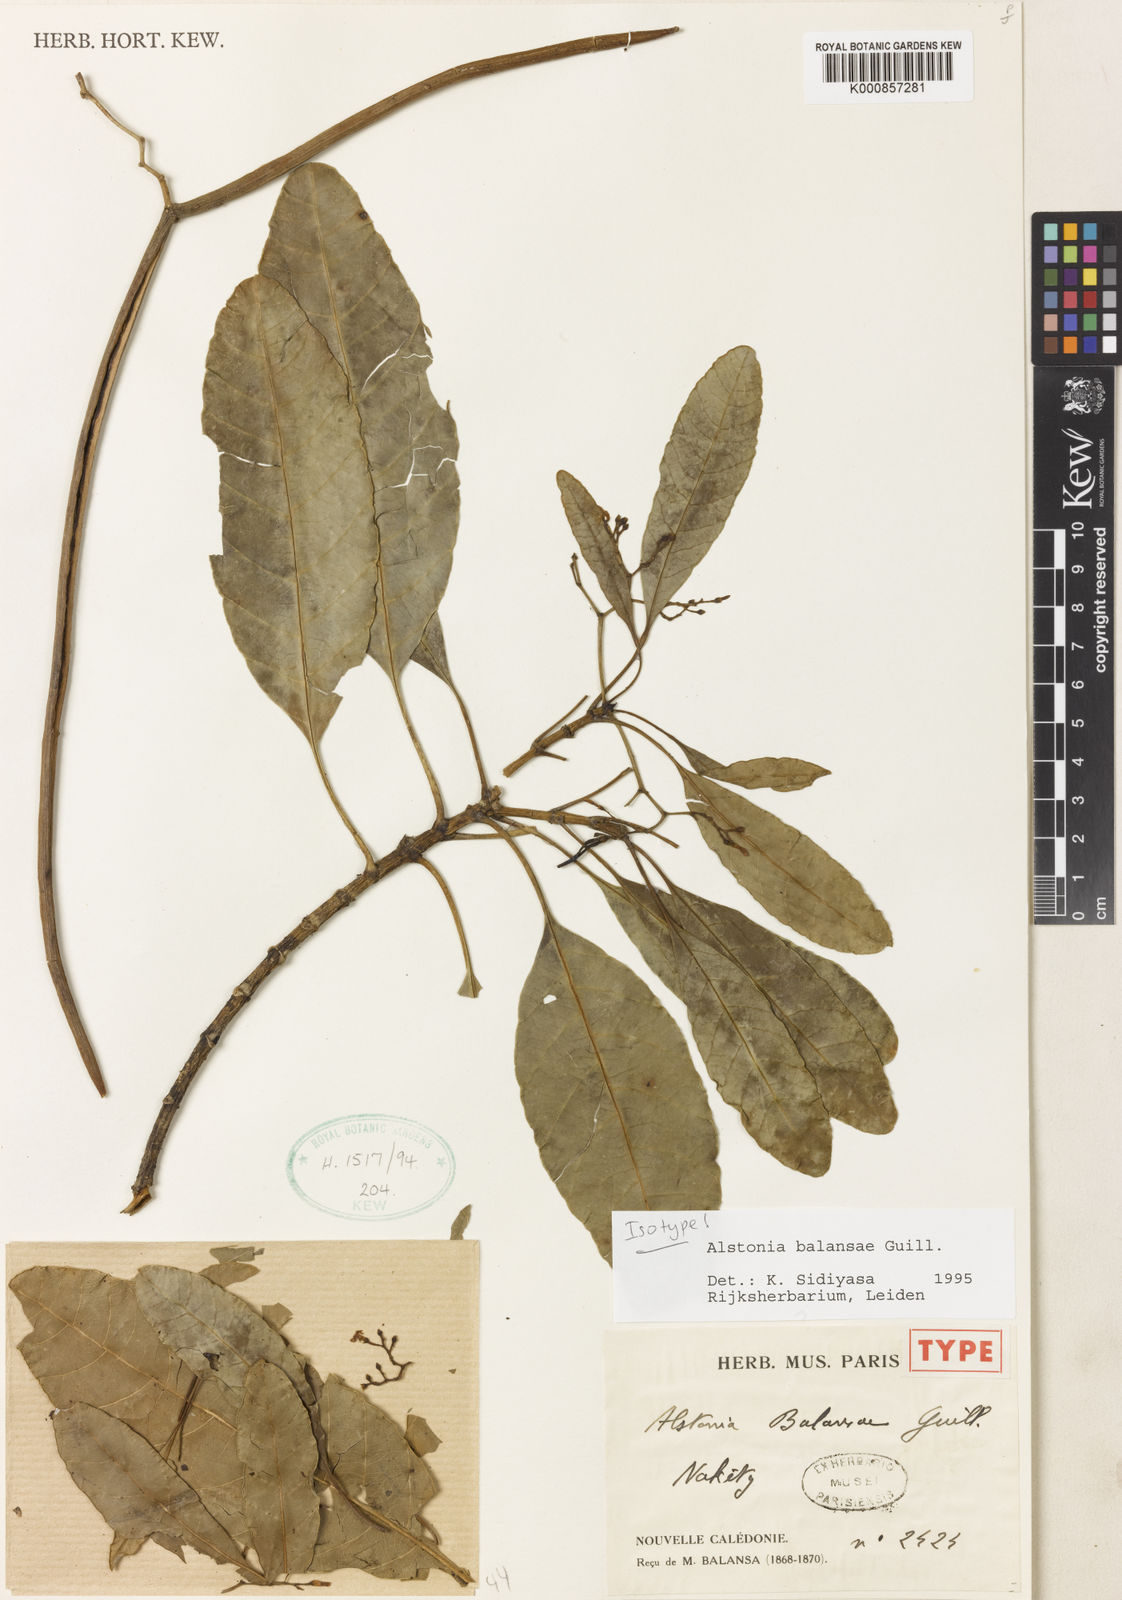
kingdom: Plantae
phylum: Tracheophyta
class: Magnoliopsida
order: Gentianales
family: Apocynaceae
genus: Alstonia
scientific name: Alstonia balansae
